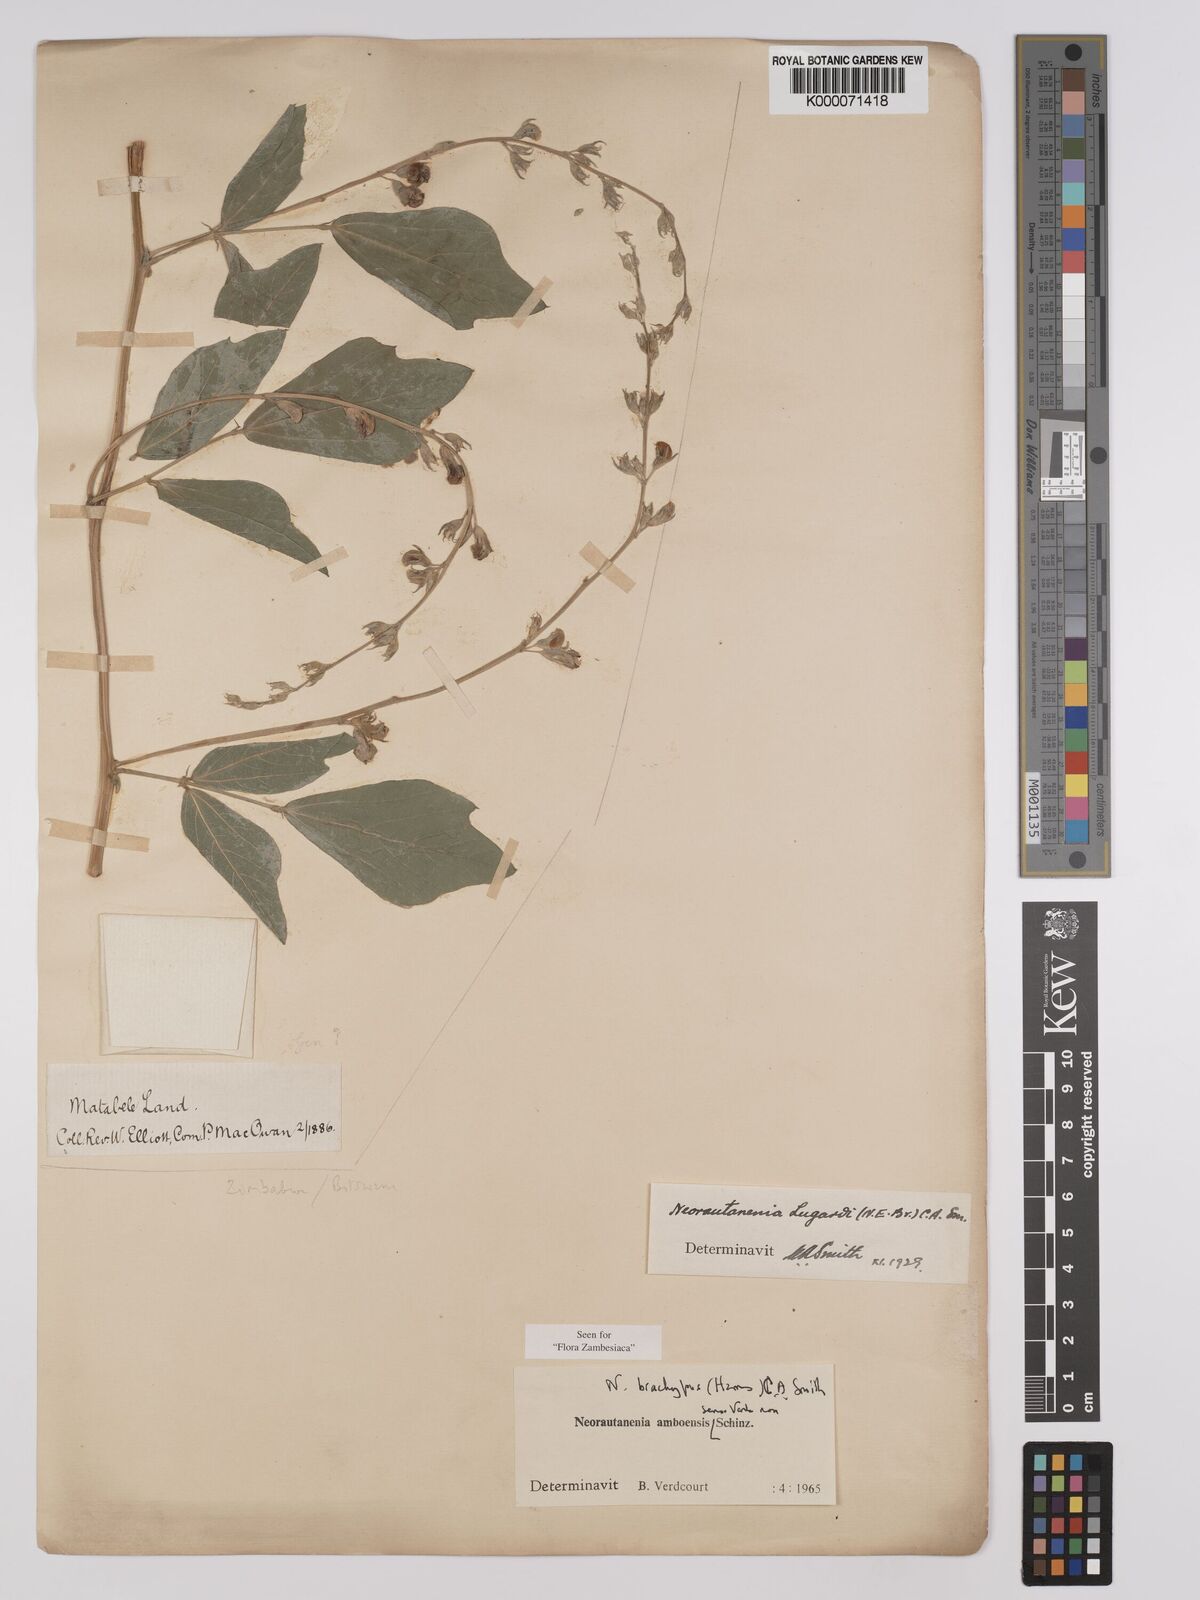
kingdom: Plantae
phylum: Tracheophyta
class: Magnoliopsida
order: Fabales
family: Fabaceae
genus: Neorautanenia
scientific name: Neorautanenia
